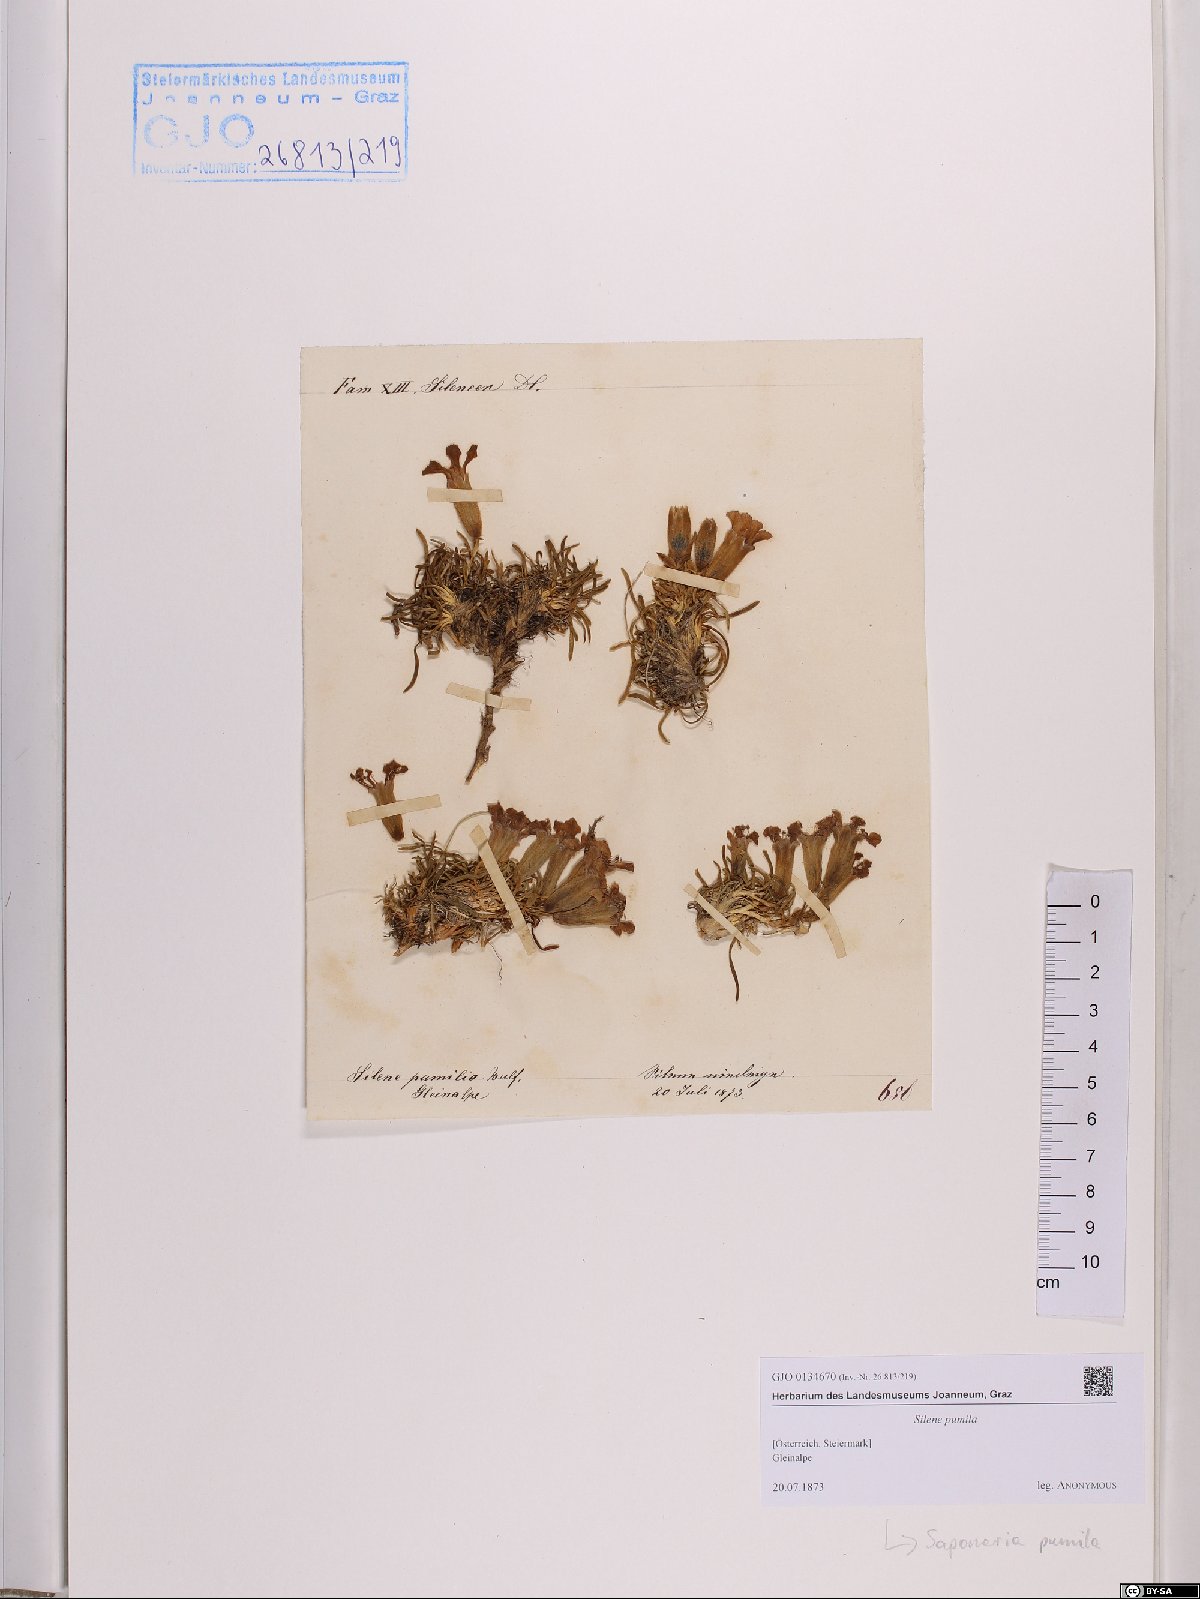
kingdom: Plantae
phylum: Tracheophyta
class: Magnoliopsida
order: Caryophyllales
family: Caryophyllaceae
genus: Saponaria
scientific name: Saponaria pumila
